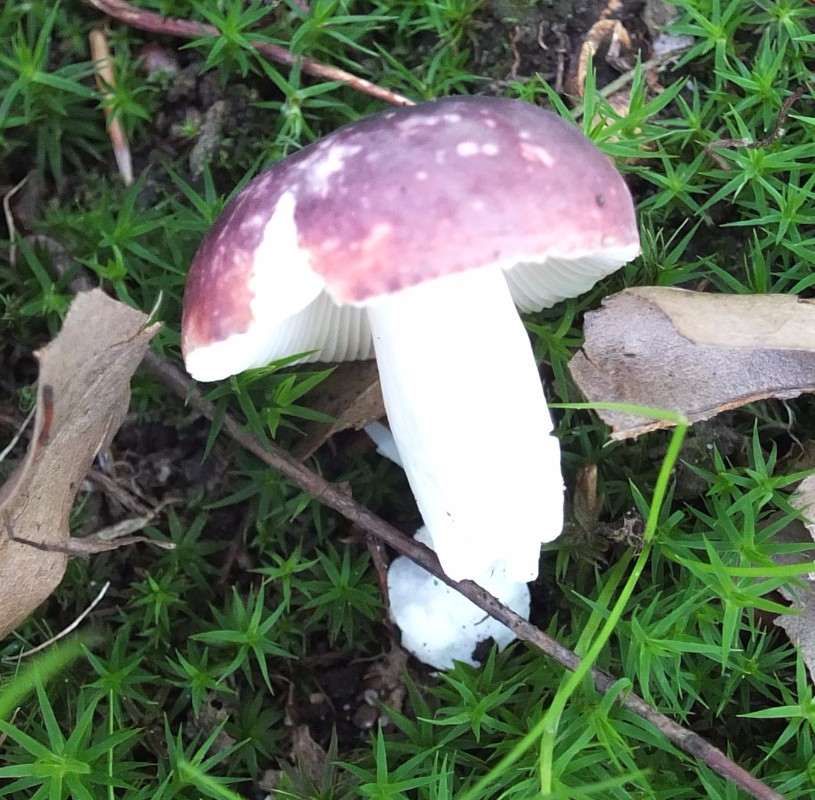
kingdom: Fungi
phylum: Basidiomycota
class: Agaricomycetes
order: Russulales
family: Russulaceae
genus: Russula
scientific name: Russula atropurpurea
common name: purpurbroget skørhat
